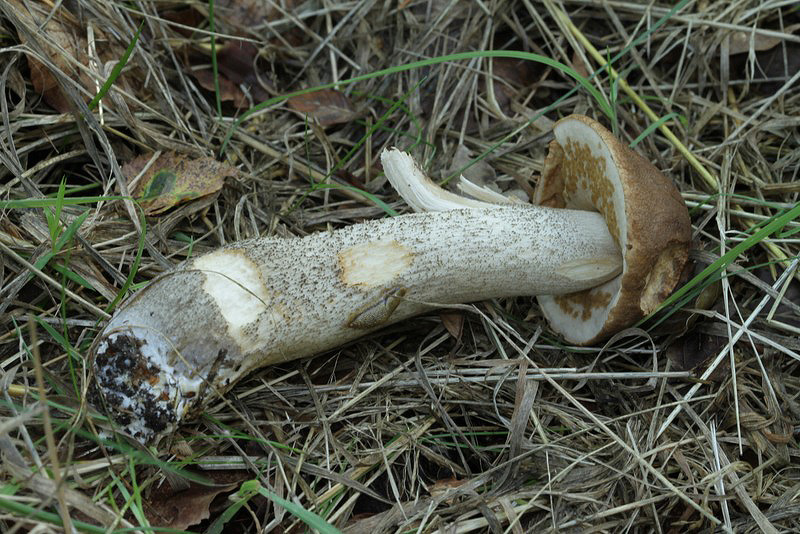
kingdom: Fungi
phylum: Basidiomycota
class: Agaricomycetes
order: Boletales
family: Boletaceae
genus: Leccinum
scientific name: Leccinum scabrum
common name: brun skælrørhat
